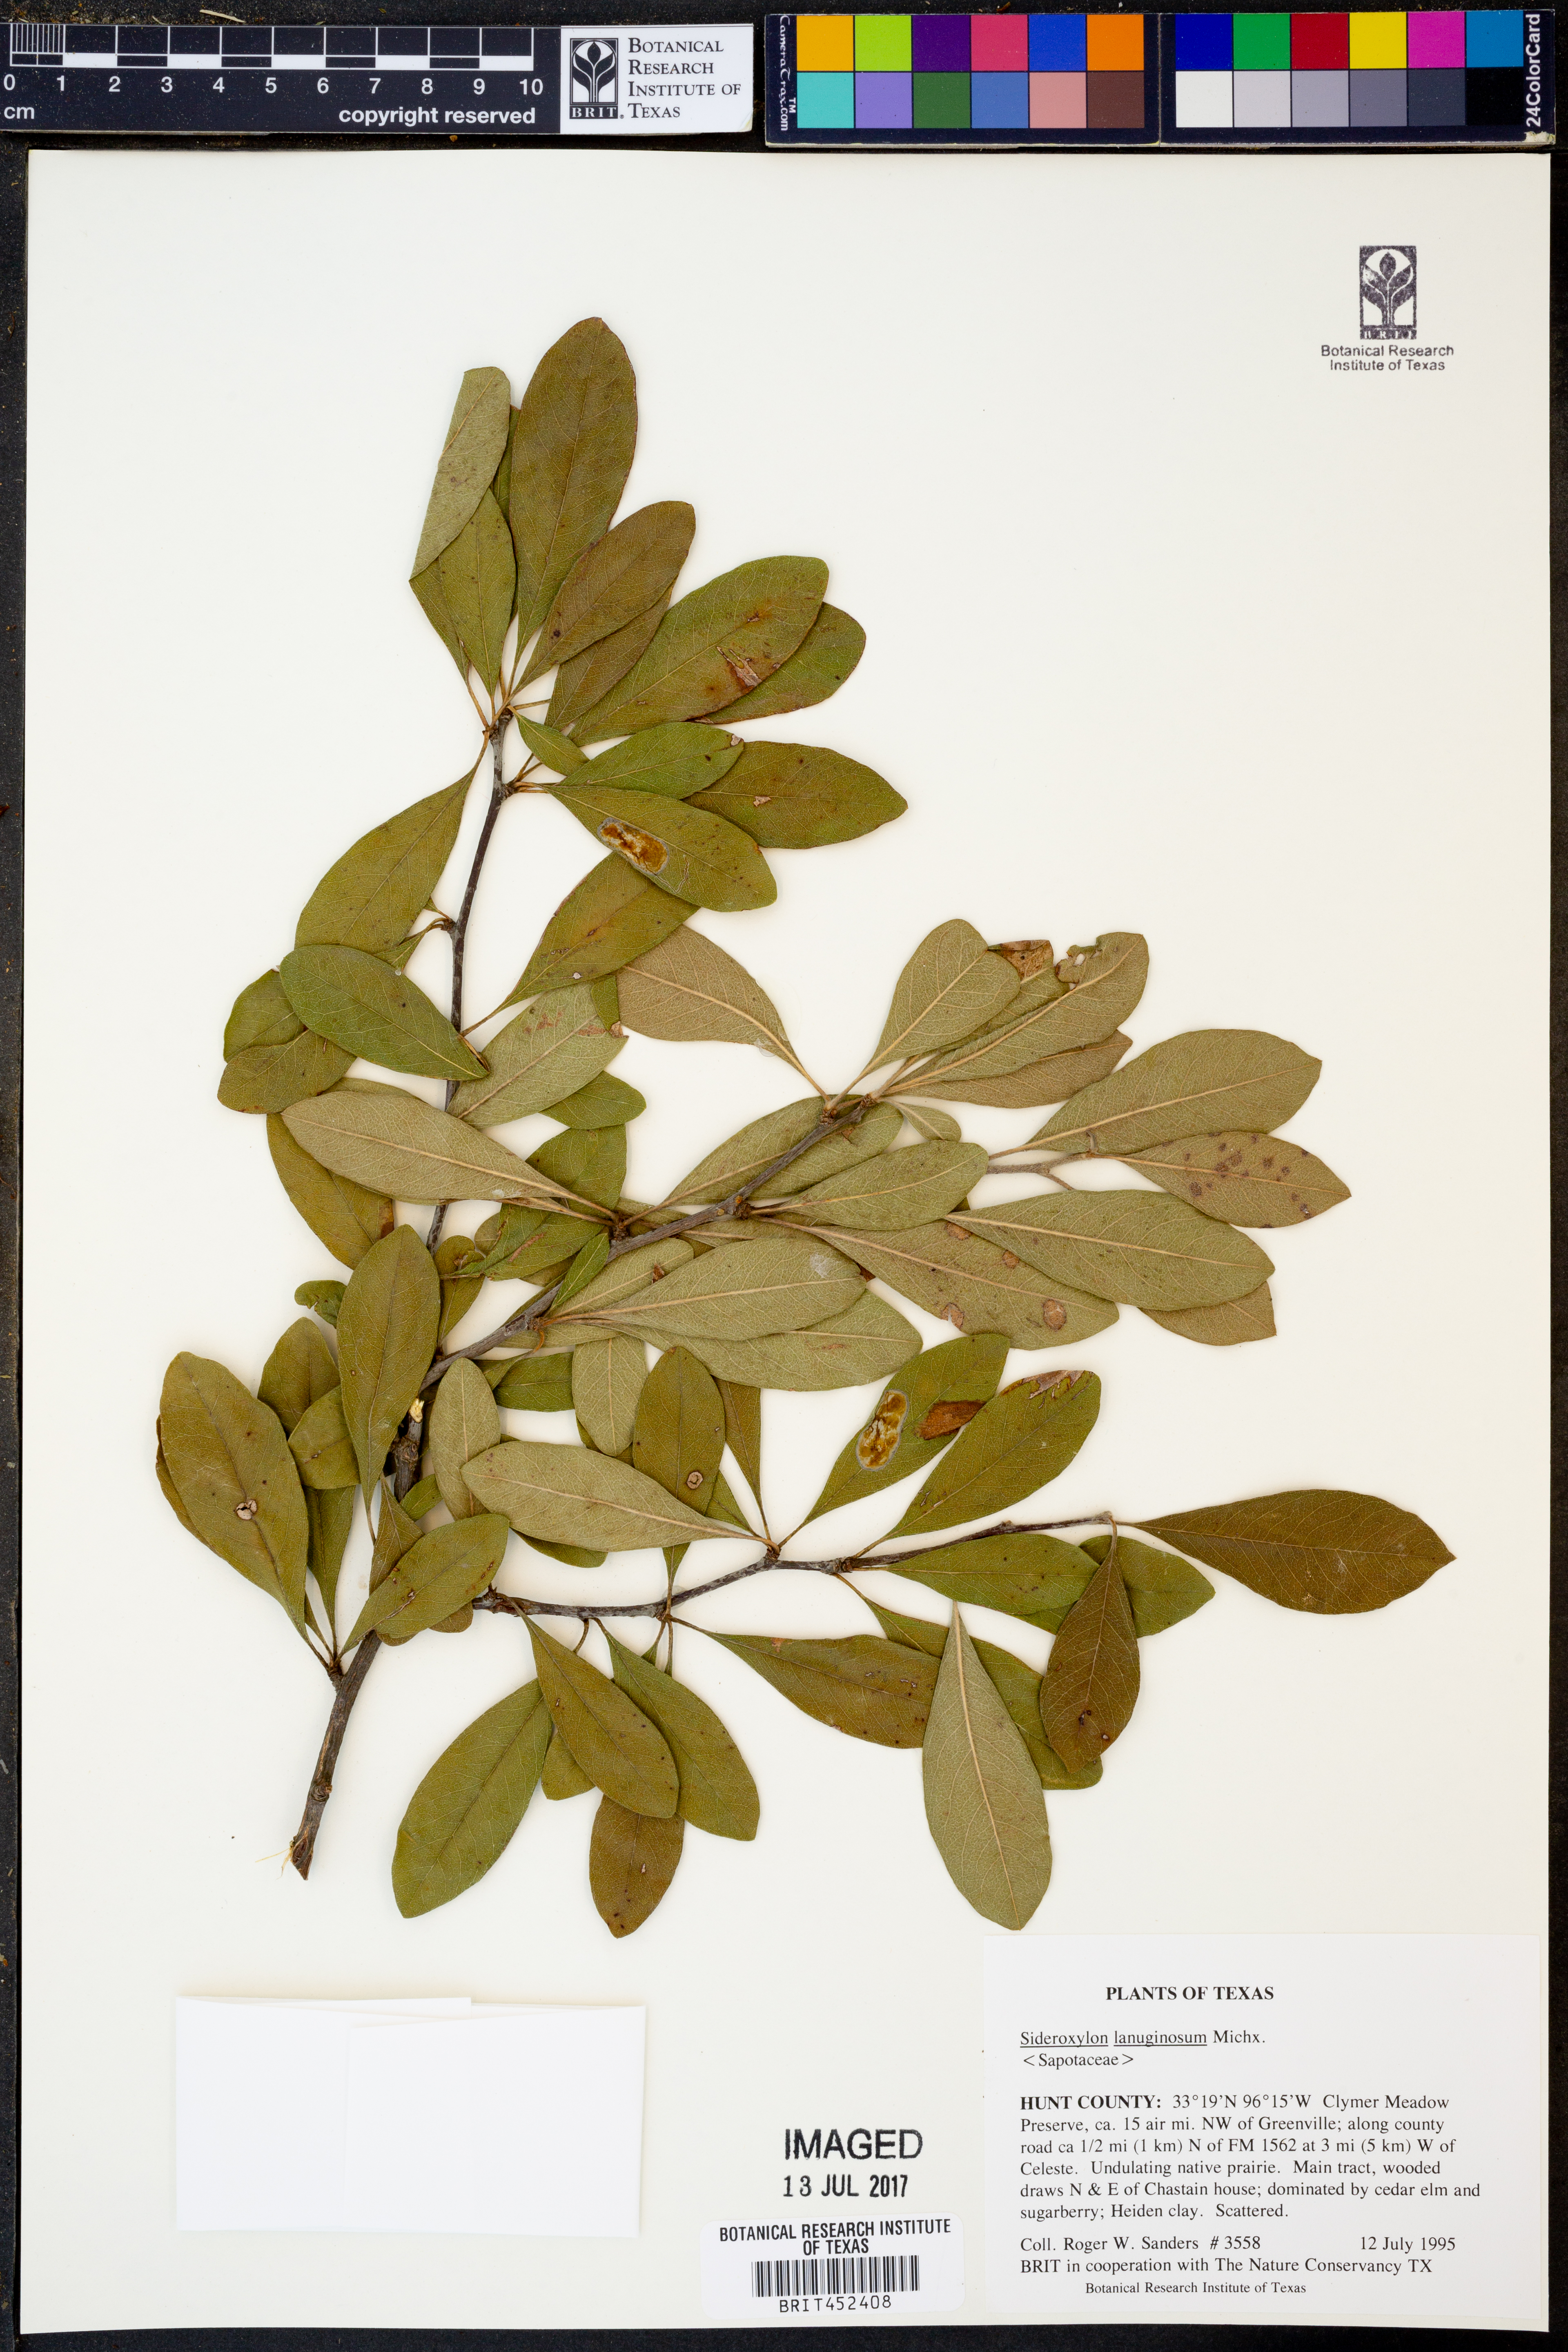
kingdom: Plantae
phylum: Tracheophyta
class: Magnoliopsida
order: Ericales
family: Sapotaceae
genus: Sideroxylon
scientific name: Sideroxylon lanuginosum
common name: Chittamwood
